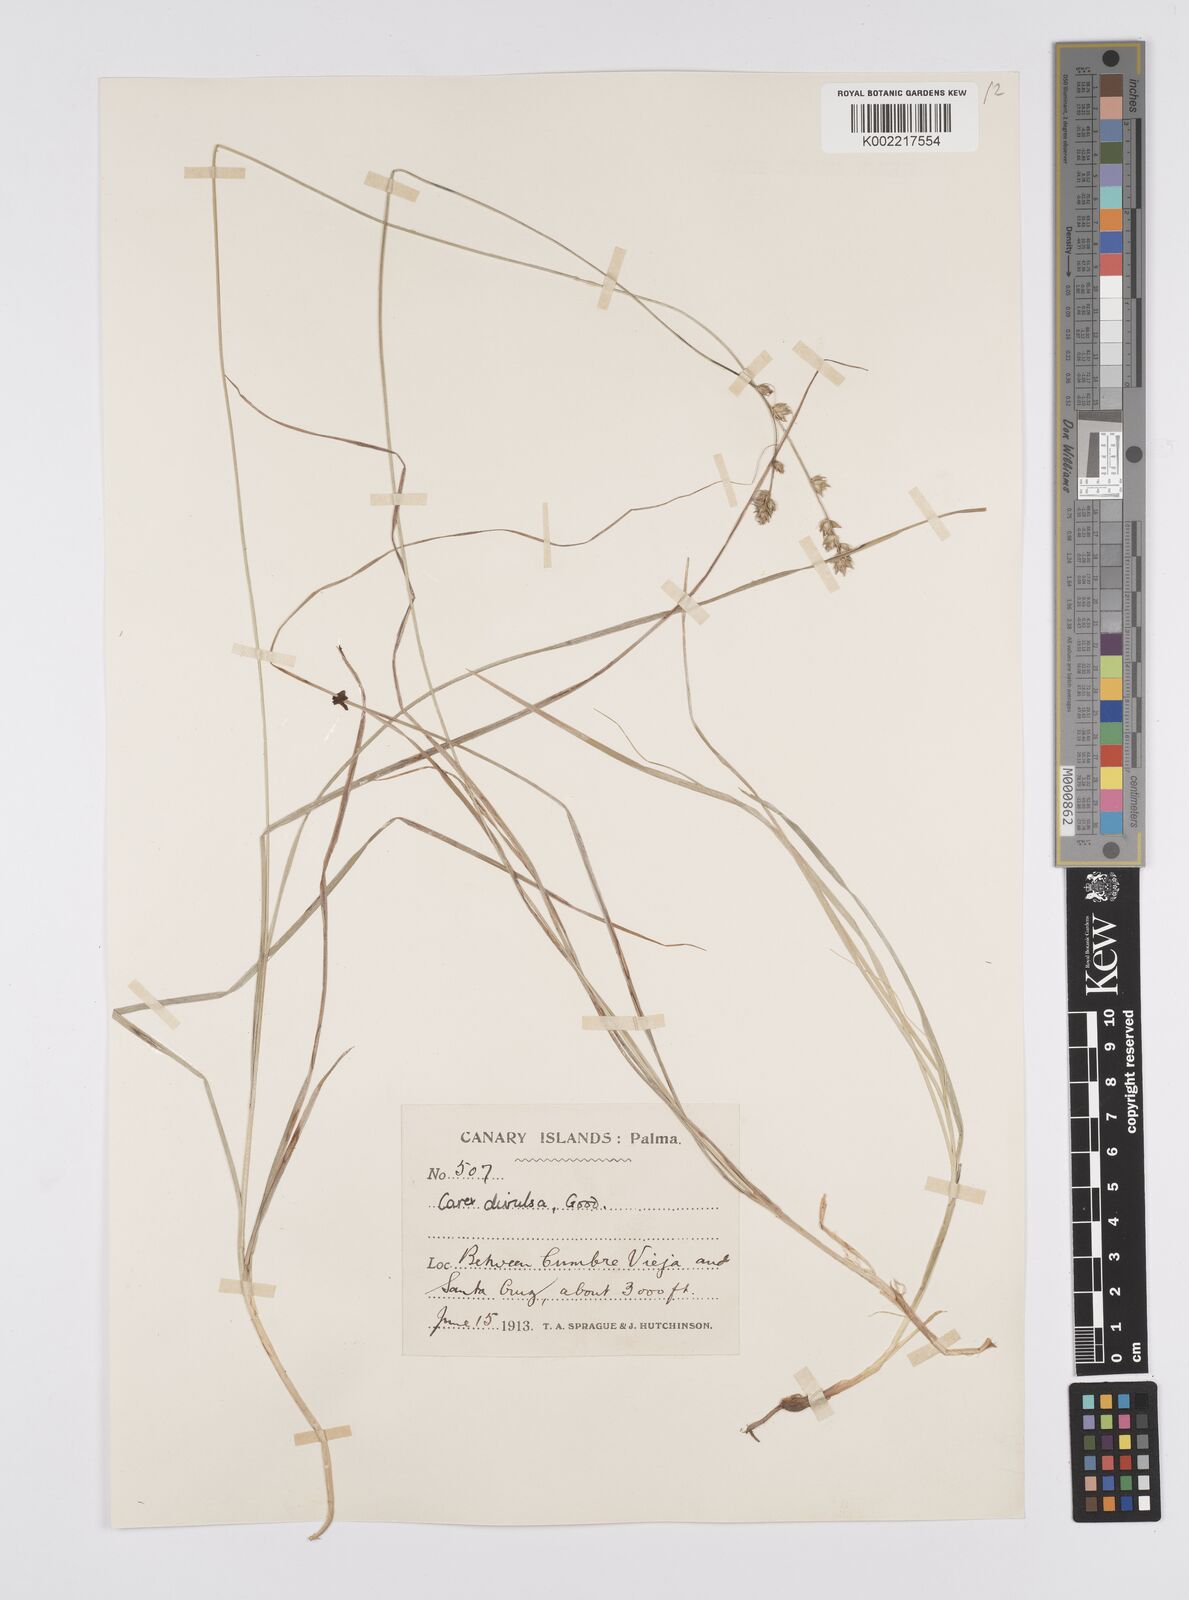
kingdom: Plantae
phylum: Tracheophyta
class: Liliopsida
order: Poales
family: Cyperaceae
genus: Carex
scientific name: Carex divulsa
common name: Grassland sedge
